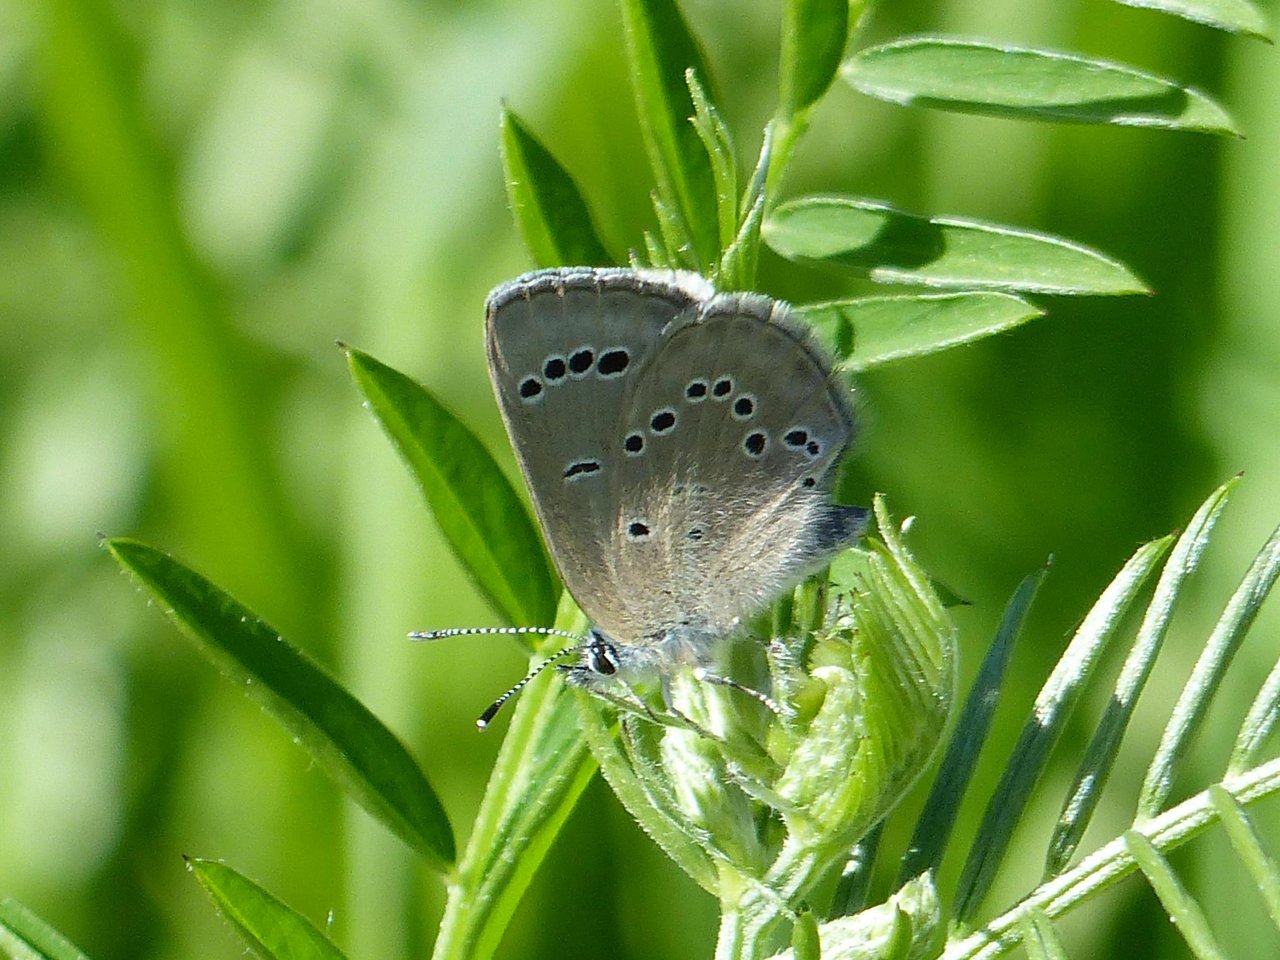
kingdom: Animalia
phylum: Arthropoda
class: Insecta
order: Lepidoptera
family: Lycaenidae
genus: Glaucopsyche
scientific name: Glaucopsyche lygdamus
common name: Silvery Blue
